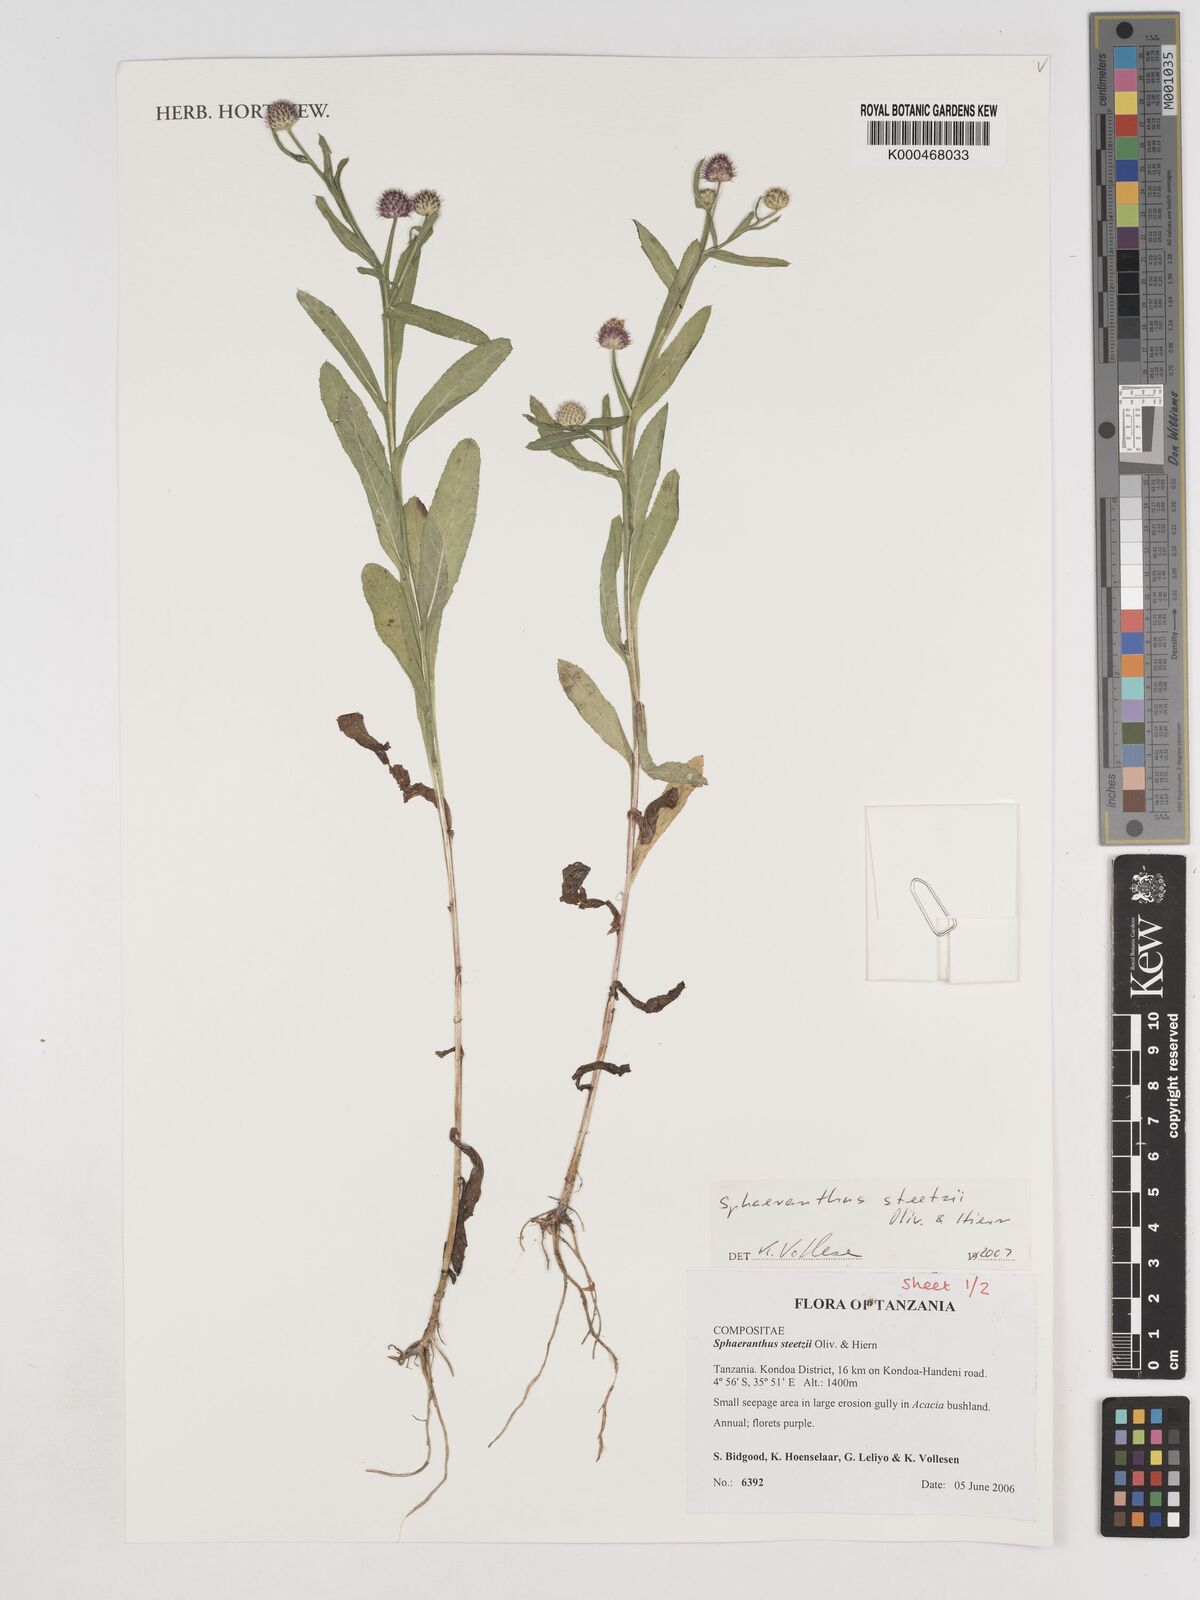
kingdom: Plantae
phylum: Tracheophyta
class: Magnoliopsida
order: Asterales
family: Asteraceae
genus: Sphaeranthus
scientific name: Sphaeranthus steetzii
